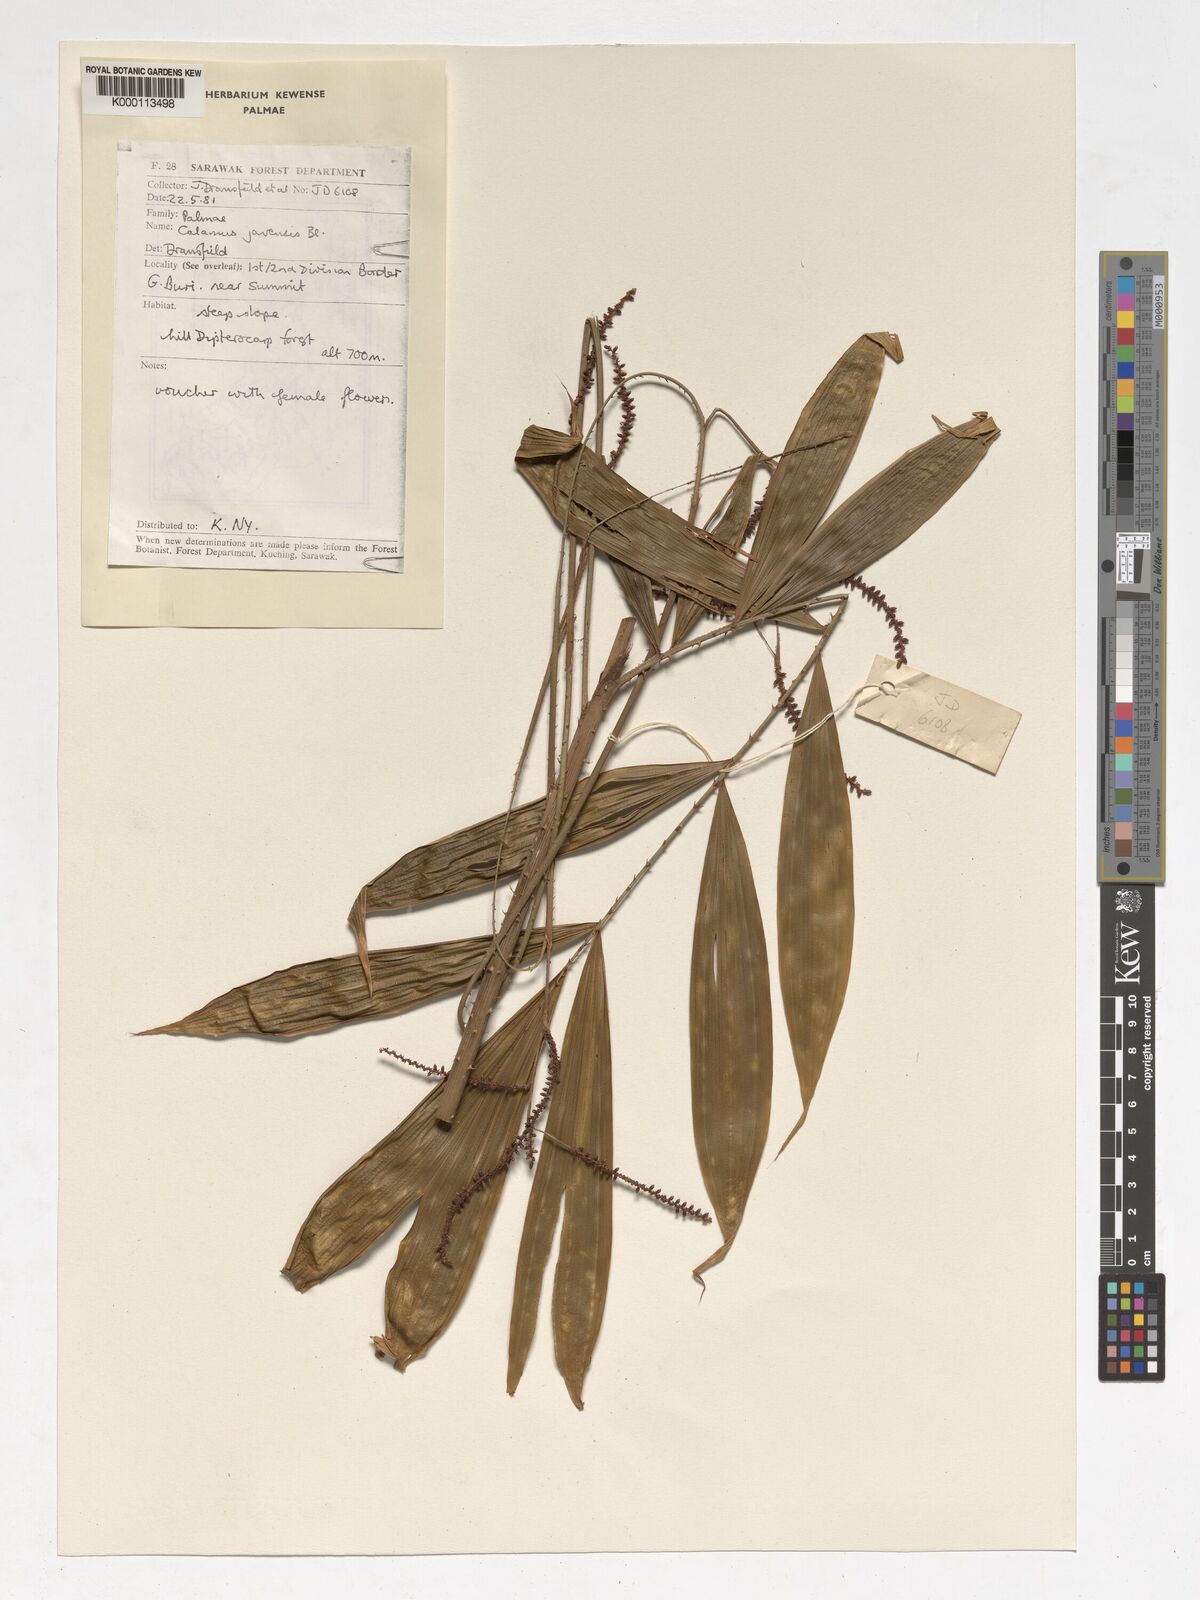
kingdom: Plantae
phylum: Tracheophyta
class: Liliopsida
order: Arecales
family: Arecaceae
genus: Calamus
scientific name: Calamus javensis
